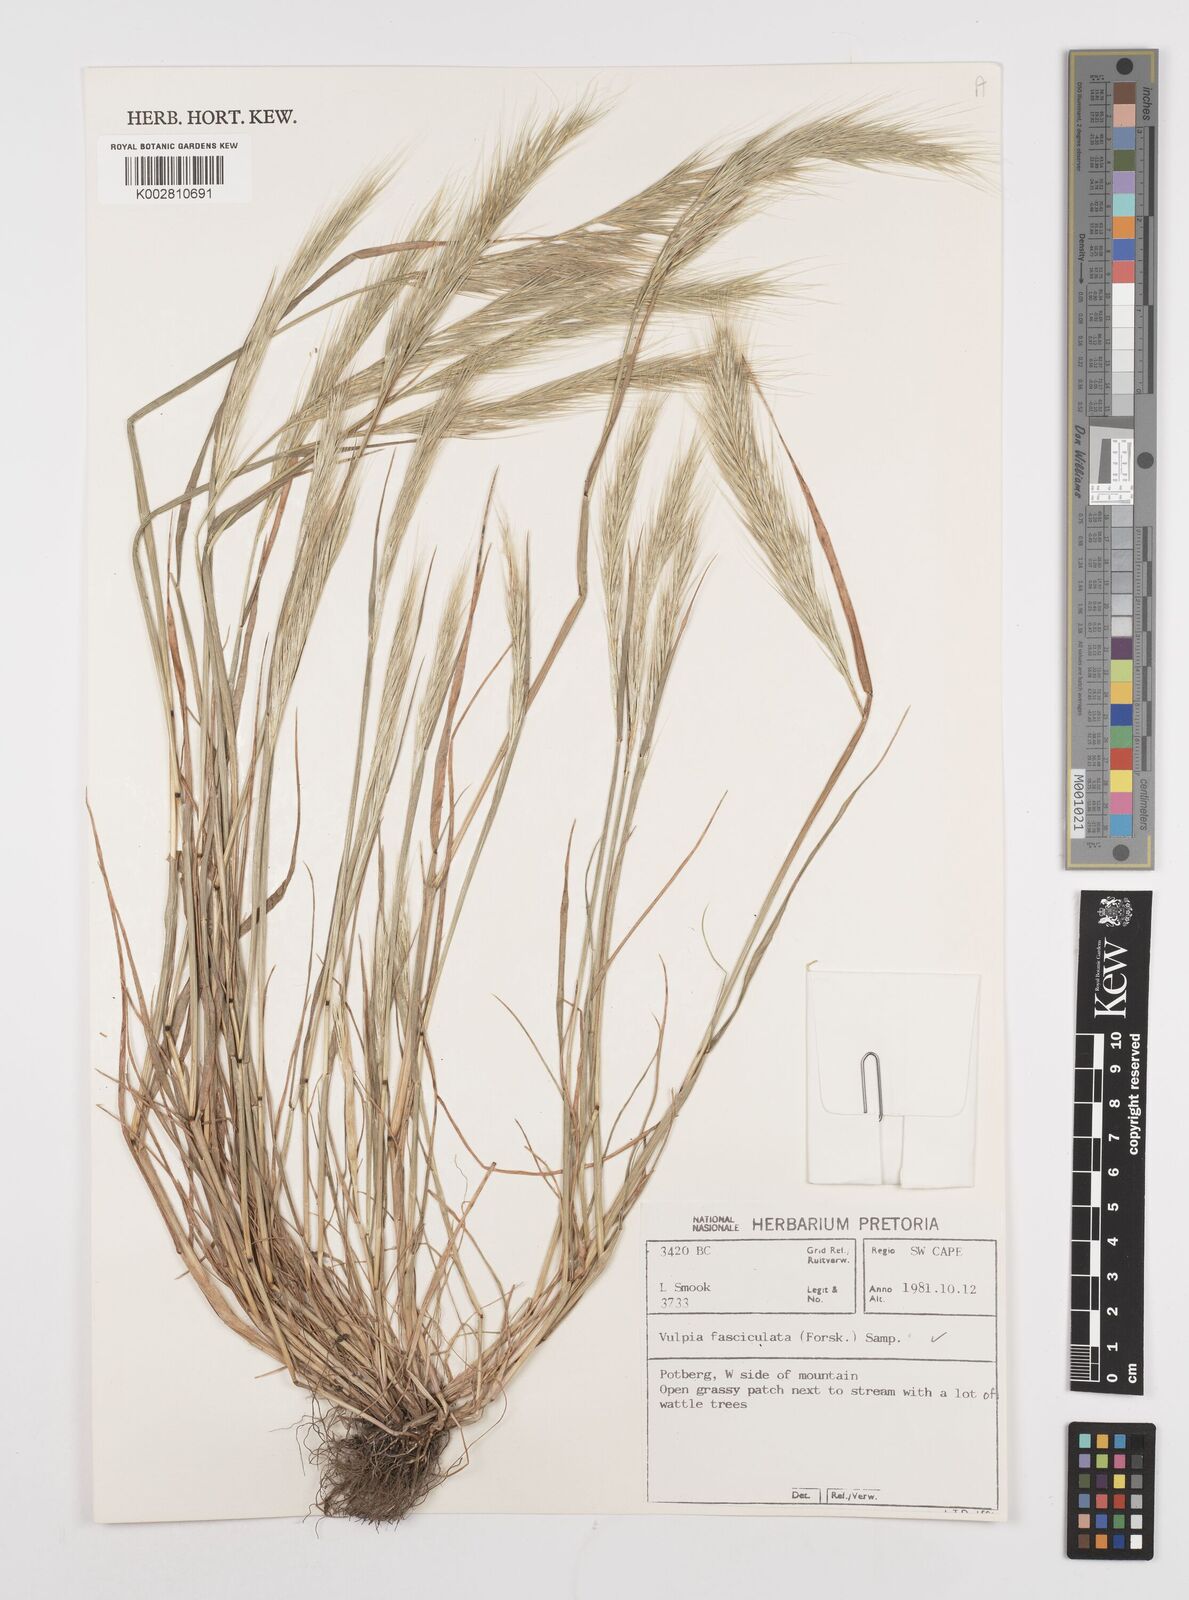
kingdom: Plantae
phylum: Tracheophyta
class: Liliopsida
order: Poales
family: Poaceae
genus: Festuca
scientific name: Festuca fasciculata
